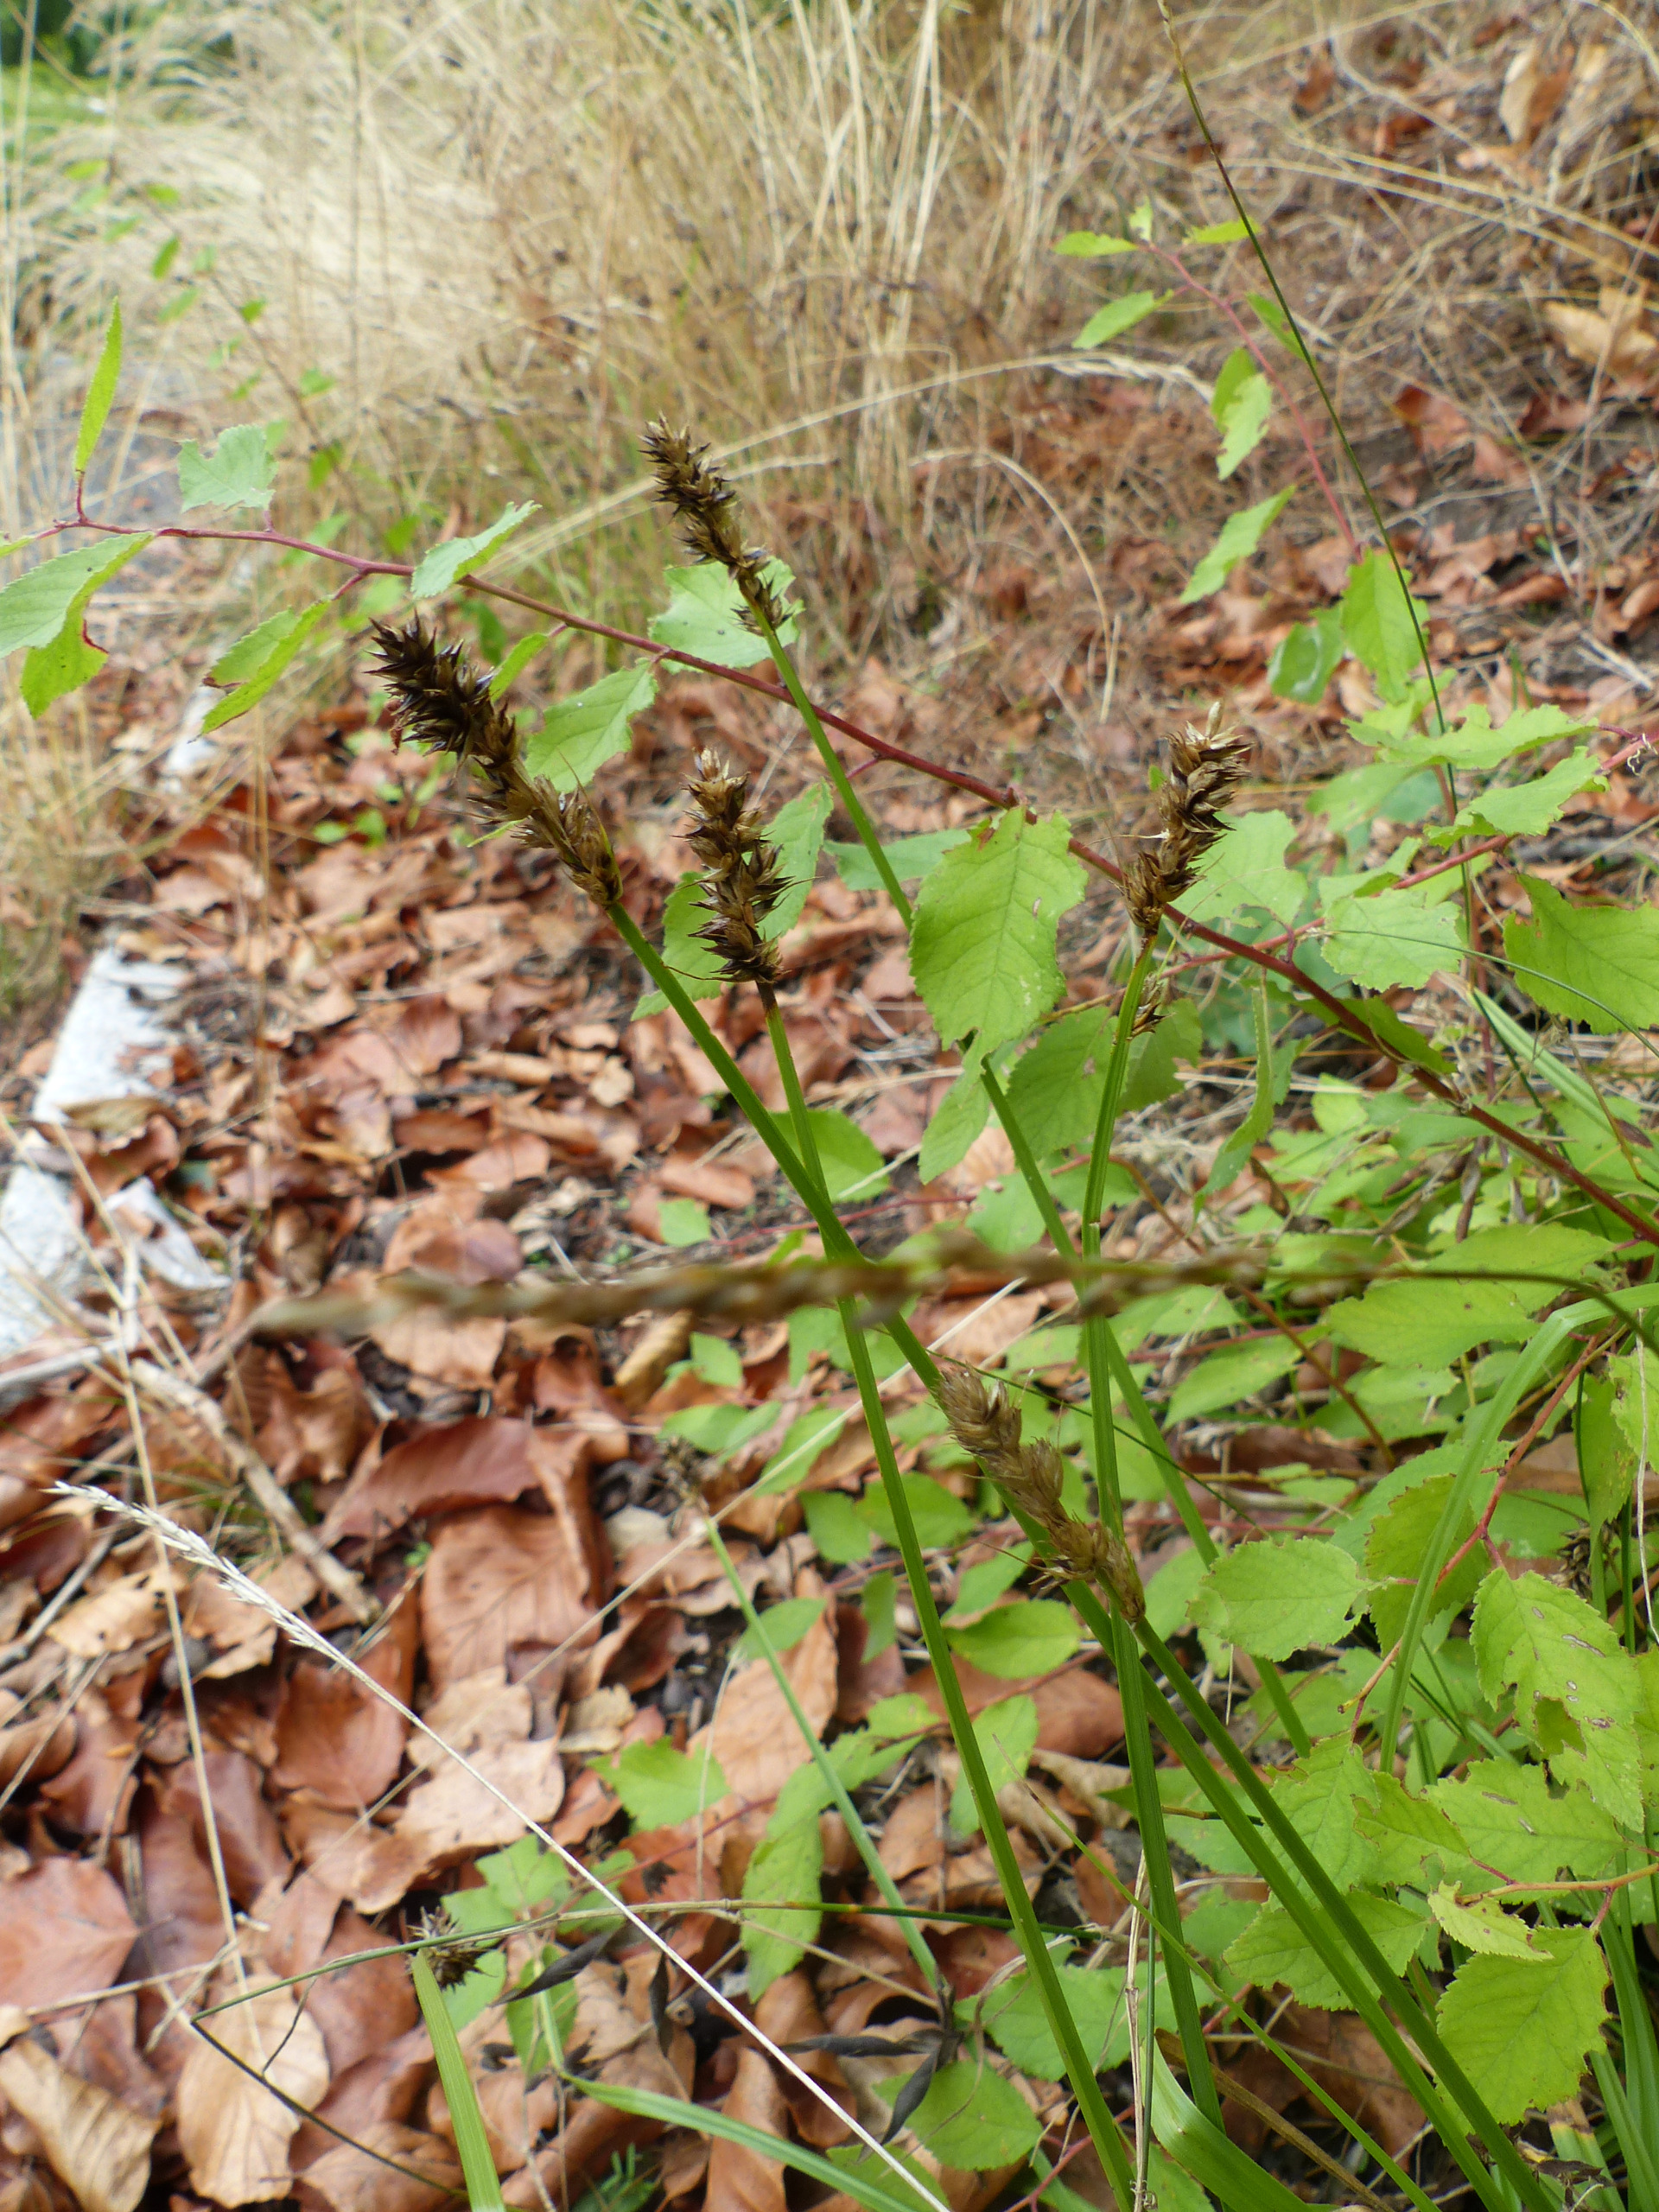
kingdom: Plantae
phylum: Tracheophyta
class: Liliopsida
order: Poales
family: Cyperaceae
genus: Carex
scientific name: Carex otrubae
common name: Sylt-star
